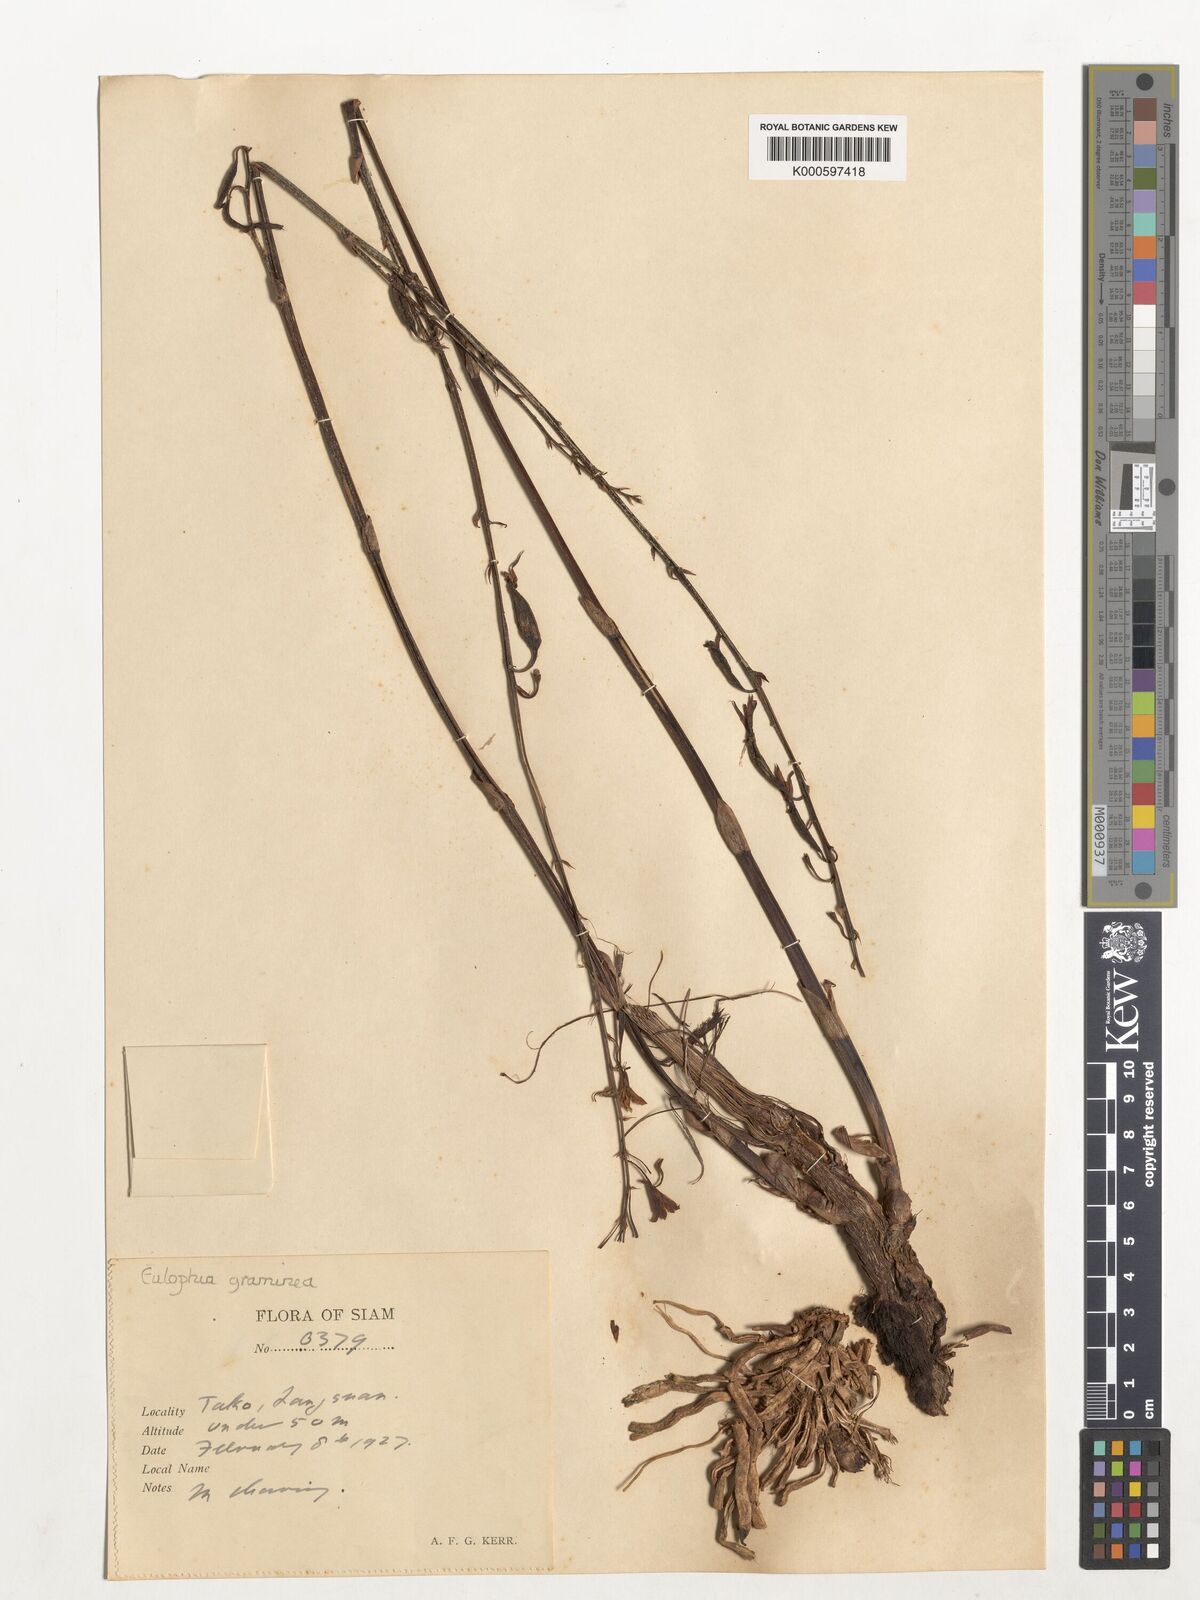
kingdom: Plantae
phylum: Tracheophyta
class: Liliopsida
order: Asparagales
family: Orchidaceae
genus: Eulophia
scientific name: Eulophia graminea
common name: Orchid
